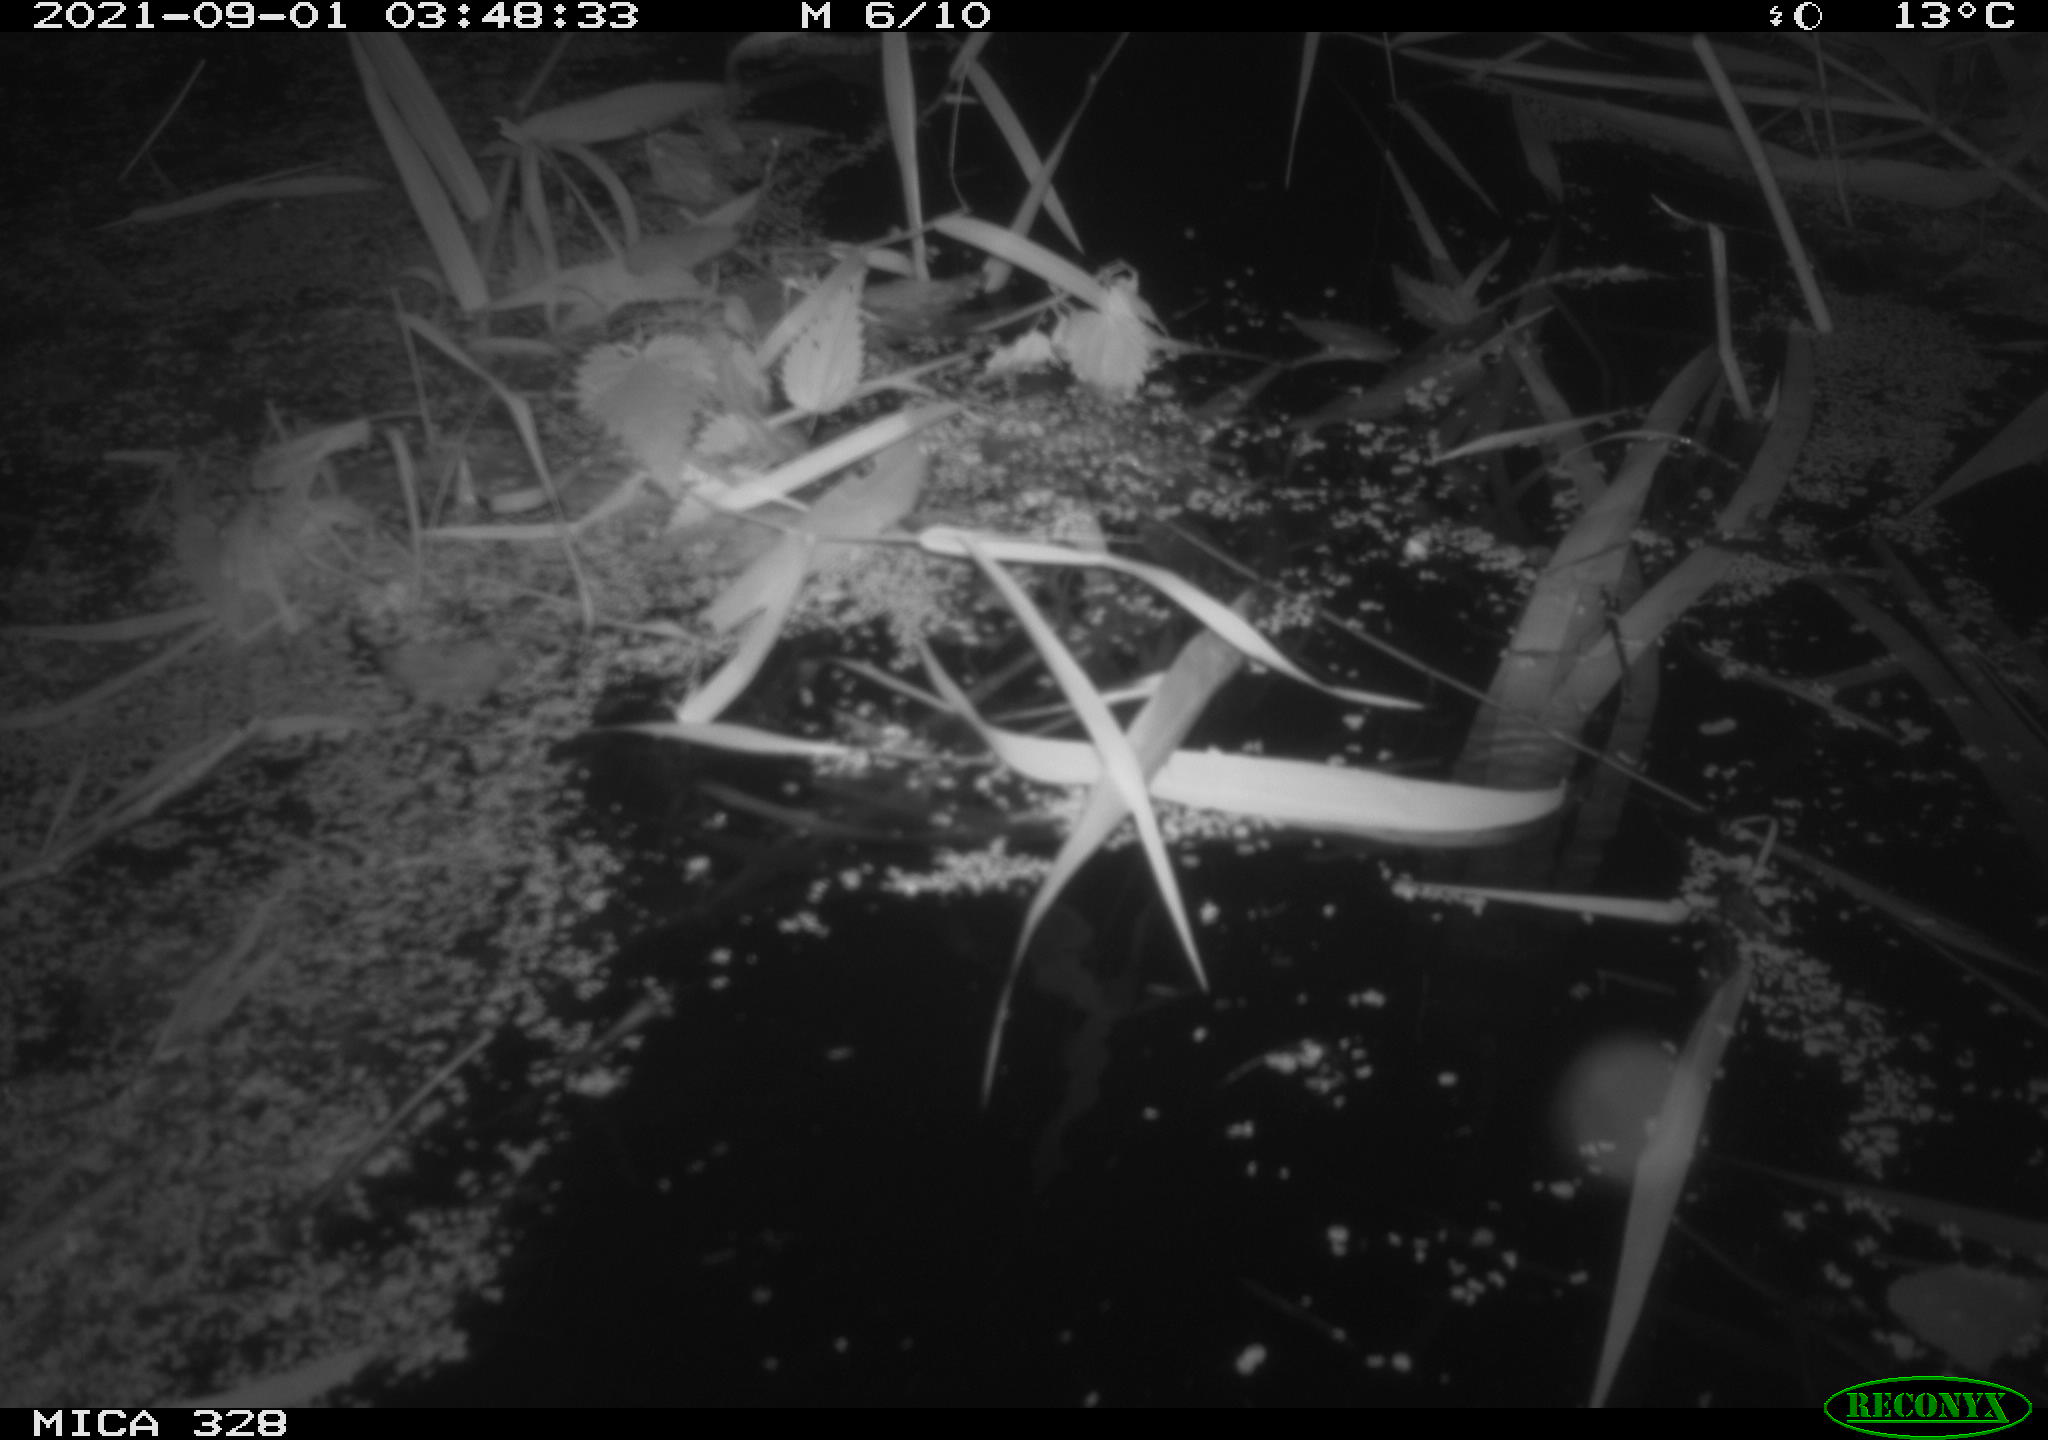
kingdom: Animalia
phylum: Chordata
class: Mammalia
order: Rodentia
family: Cricetidae
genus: Ondatra
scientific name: Ondatra zibethicus
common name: Muskrat
